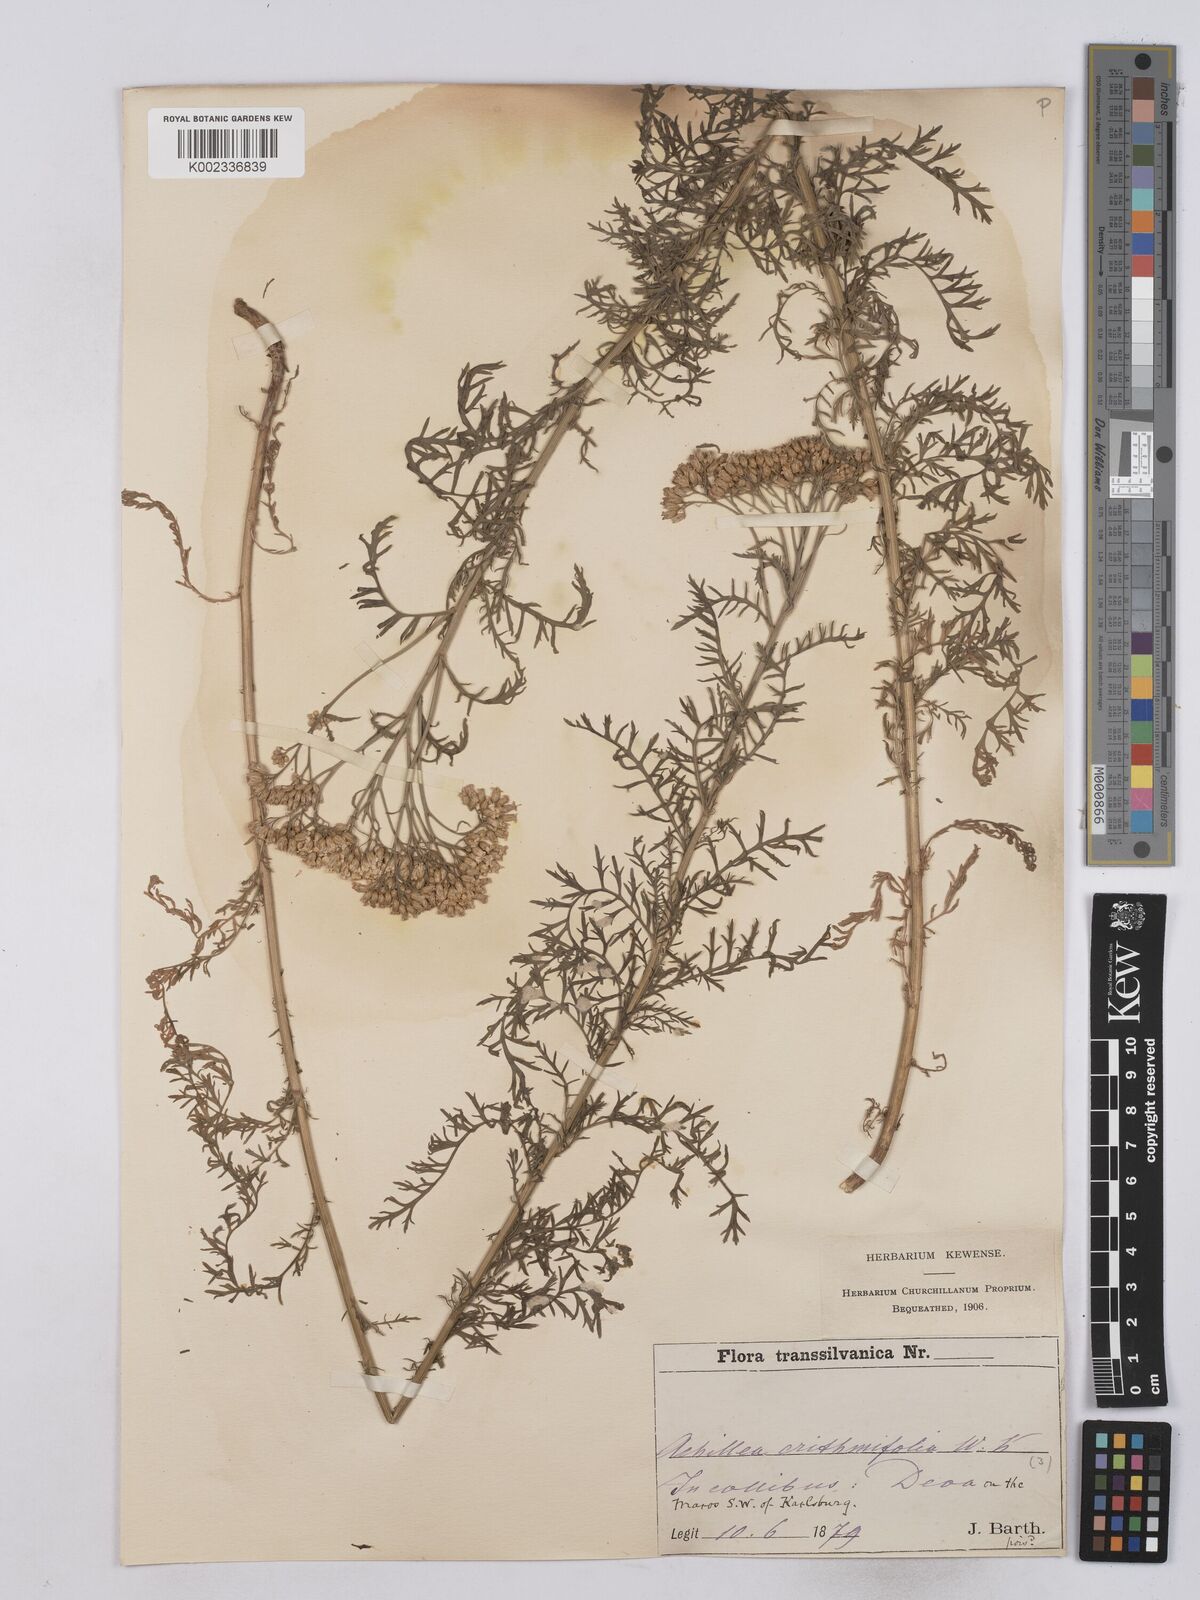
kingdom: Plantae
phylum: Tracheophyta
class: Magnoliopsida
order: Asterales
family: Asteraceae
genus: Achillea
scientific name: Achillea crithmifolia
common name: Yarrow
